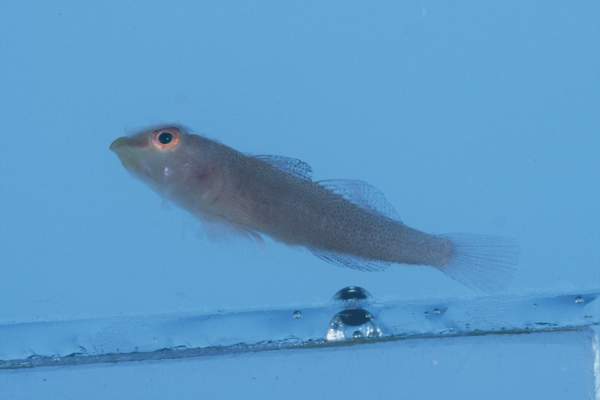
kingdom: Animalia
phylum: Chordata
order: Perciformes
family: Gobiidae
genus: Pleurosicya
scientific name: Pleurosicya fringilla
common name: Staghorn ghostgoby
